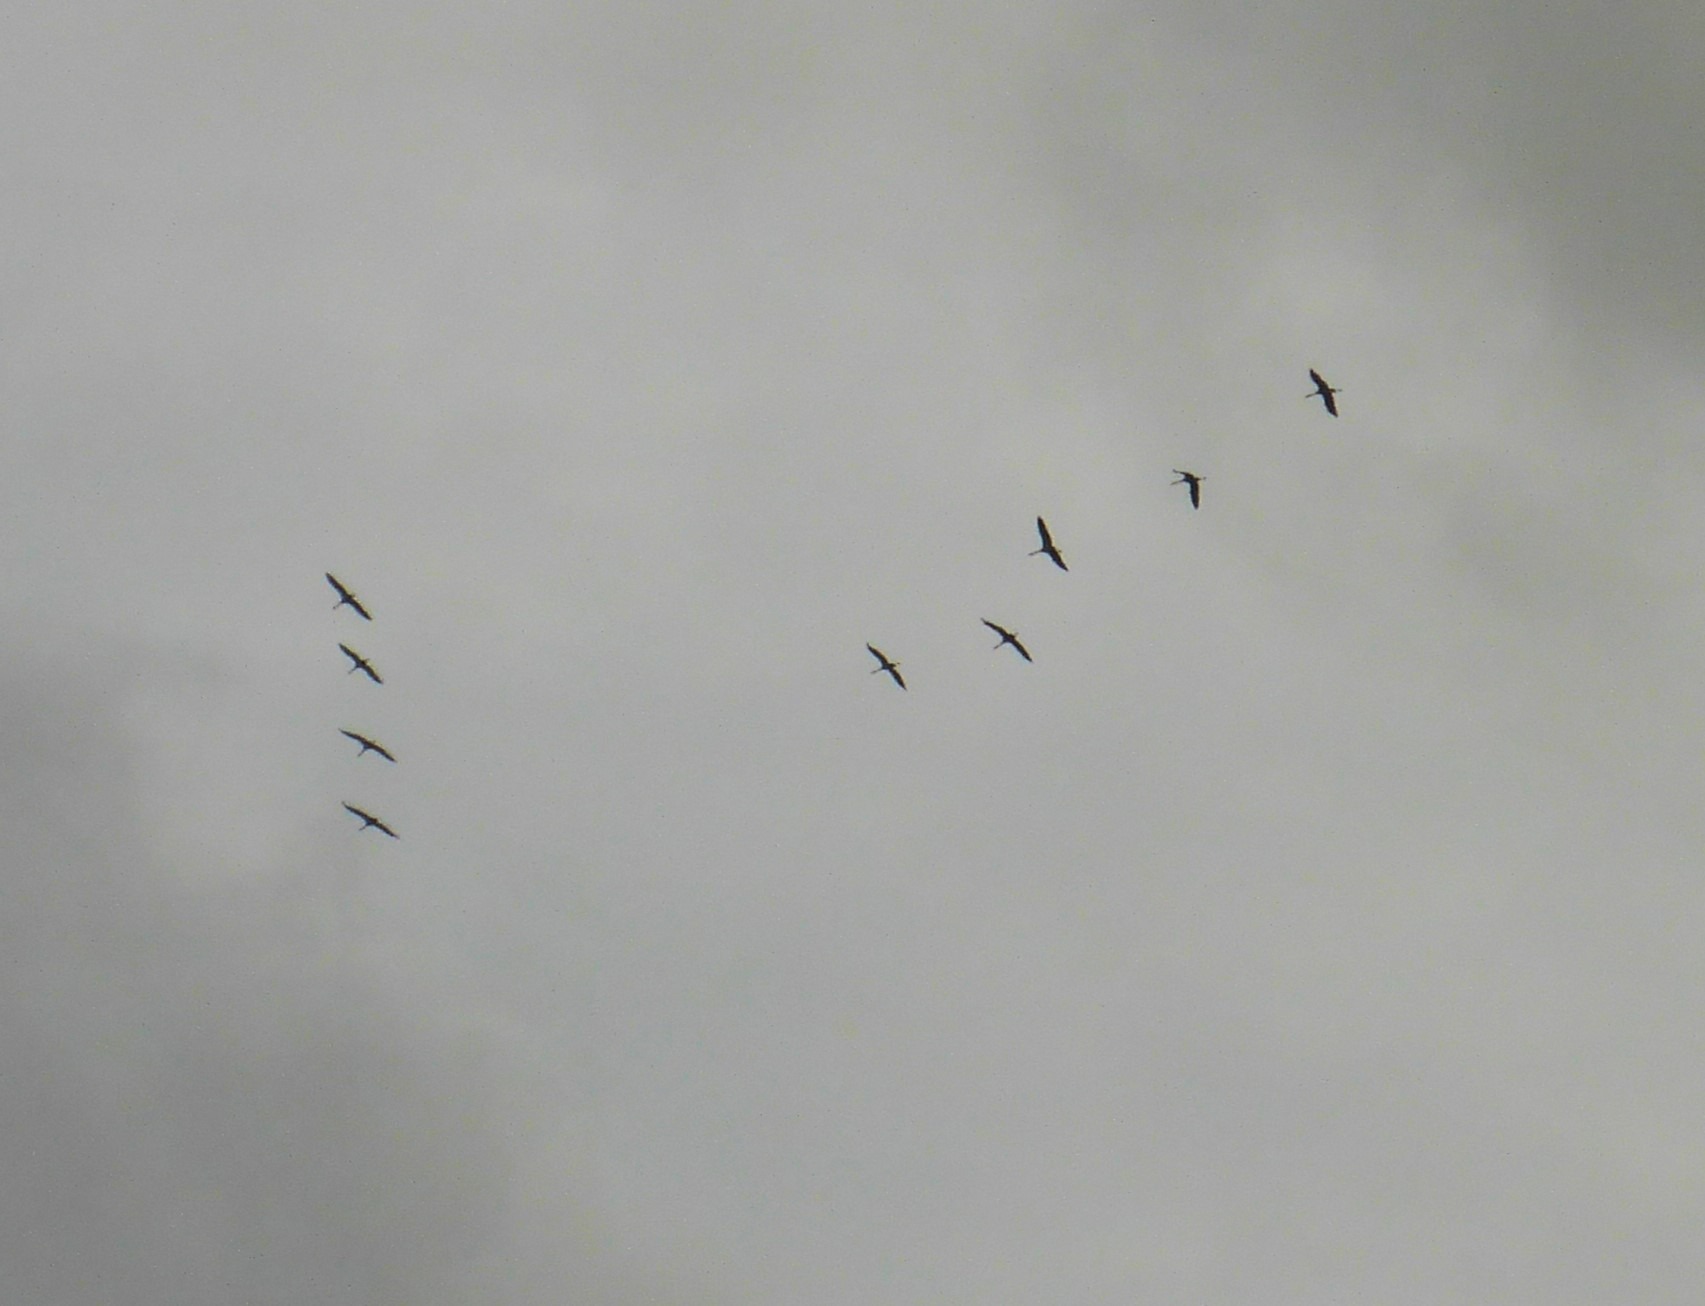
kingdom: Animalia
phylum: Chordata
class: Aves
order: Gruiformes
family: Gruidae
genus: Grus
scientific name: Grus grus
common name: Trane
